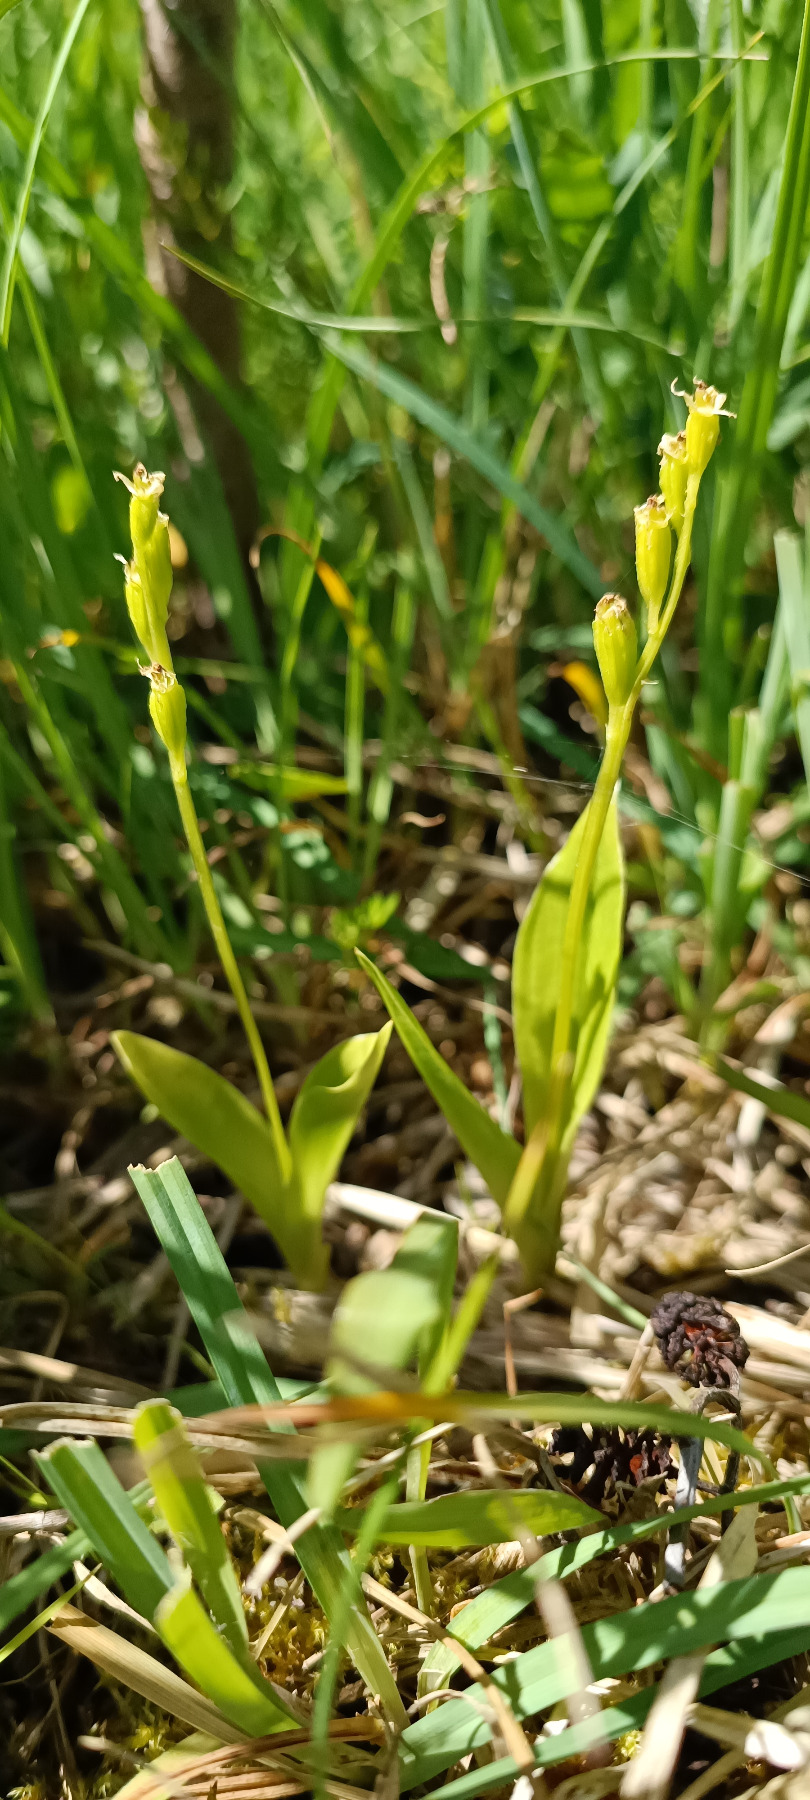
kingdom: Animalia
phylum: Arthropoda
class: Insecta
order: Coleoptera
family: Curculionidae
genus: Liparis
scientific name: Liparis loeselii
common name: Mygblomst
